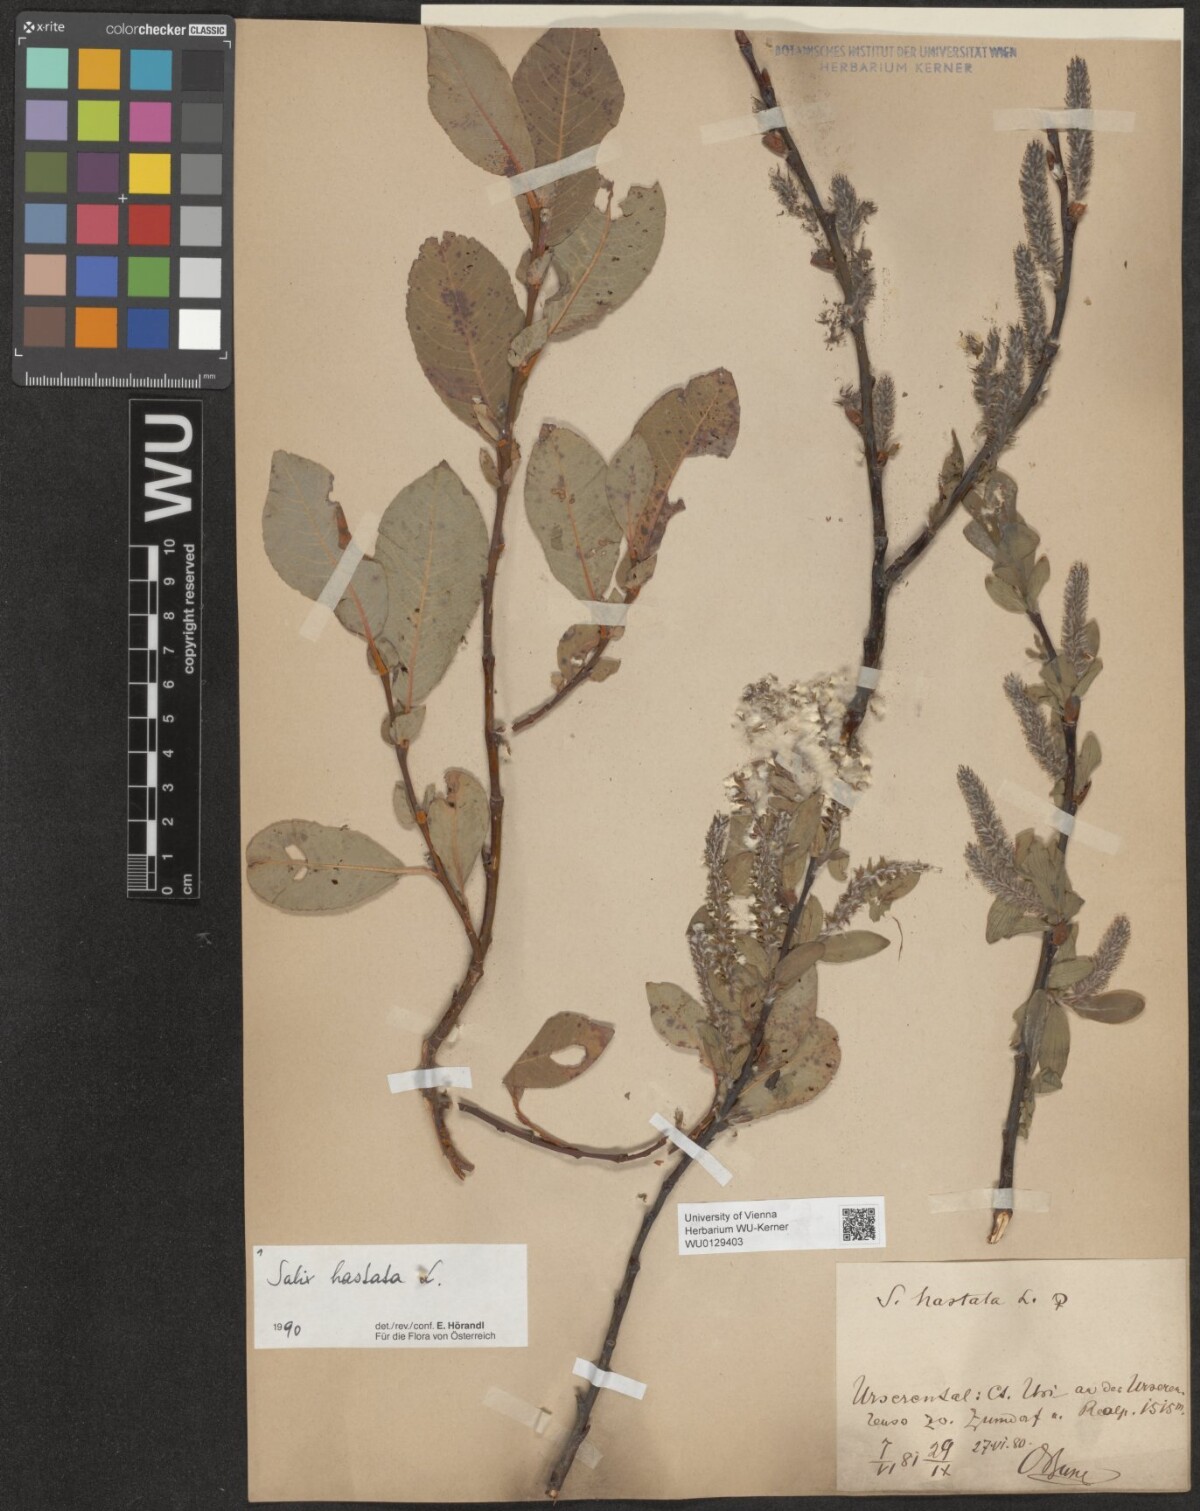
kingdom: Plantae
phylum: Tracheophyta
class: Magnoliopsida
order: Malpighiales
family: Salicaceae
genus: Salix
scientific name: Salix hastata
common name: Halberd willow
